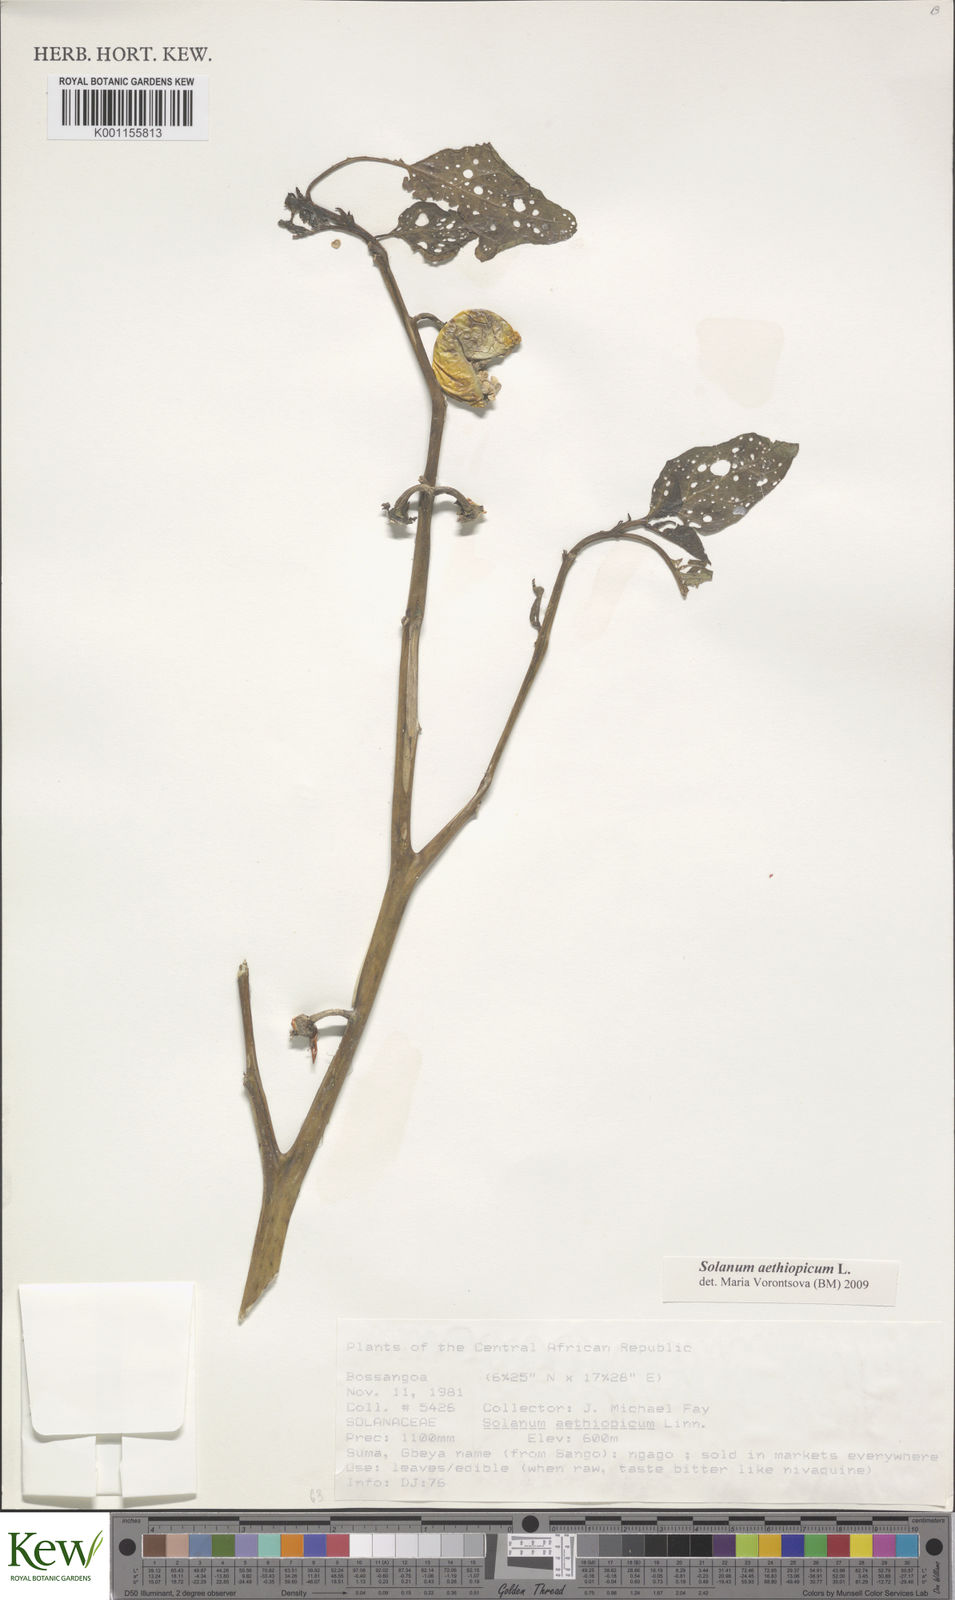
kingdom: Plantae
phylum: Tracheophyta
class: Magnoliopsida
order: Solanales
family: Solanaceae
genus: Solanum
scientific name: Solanum aethiopicum
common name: Gilo
